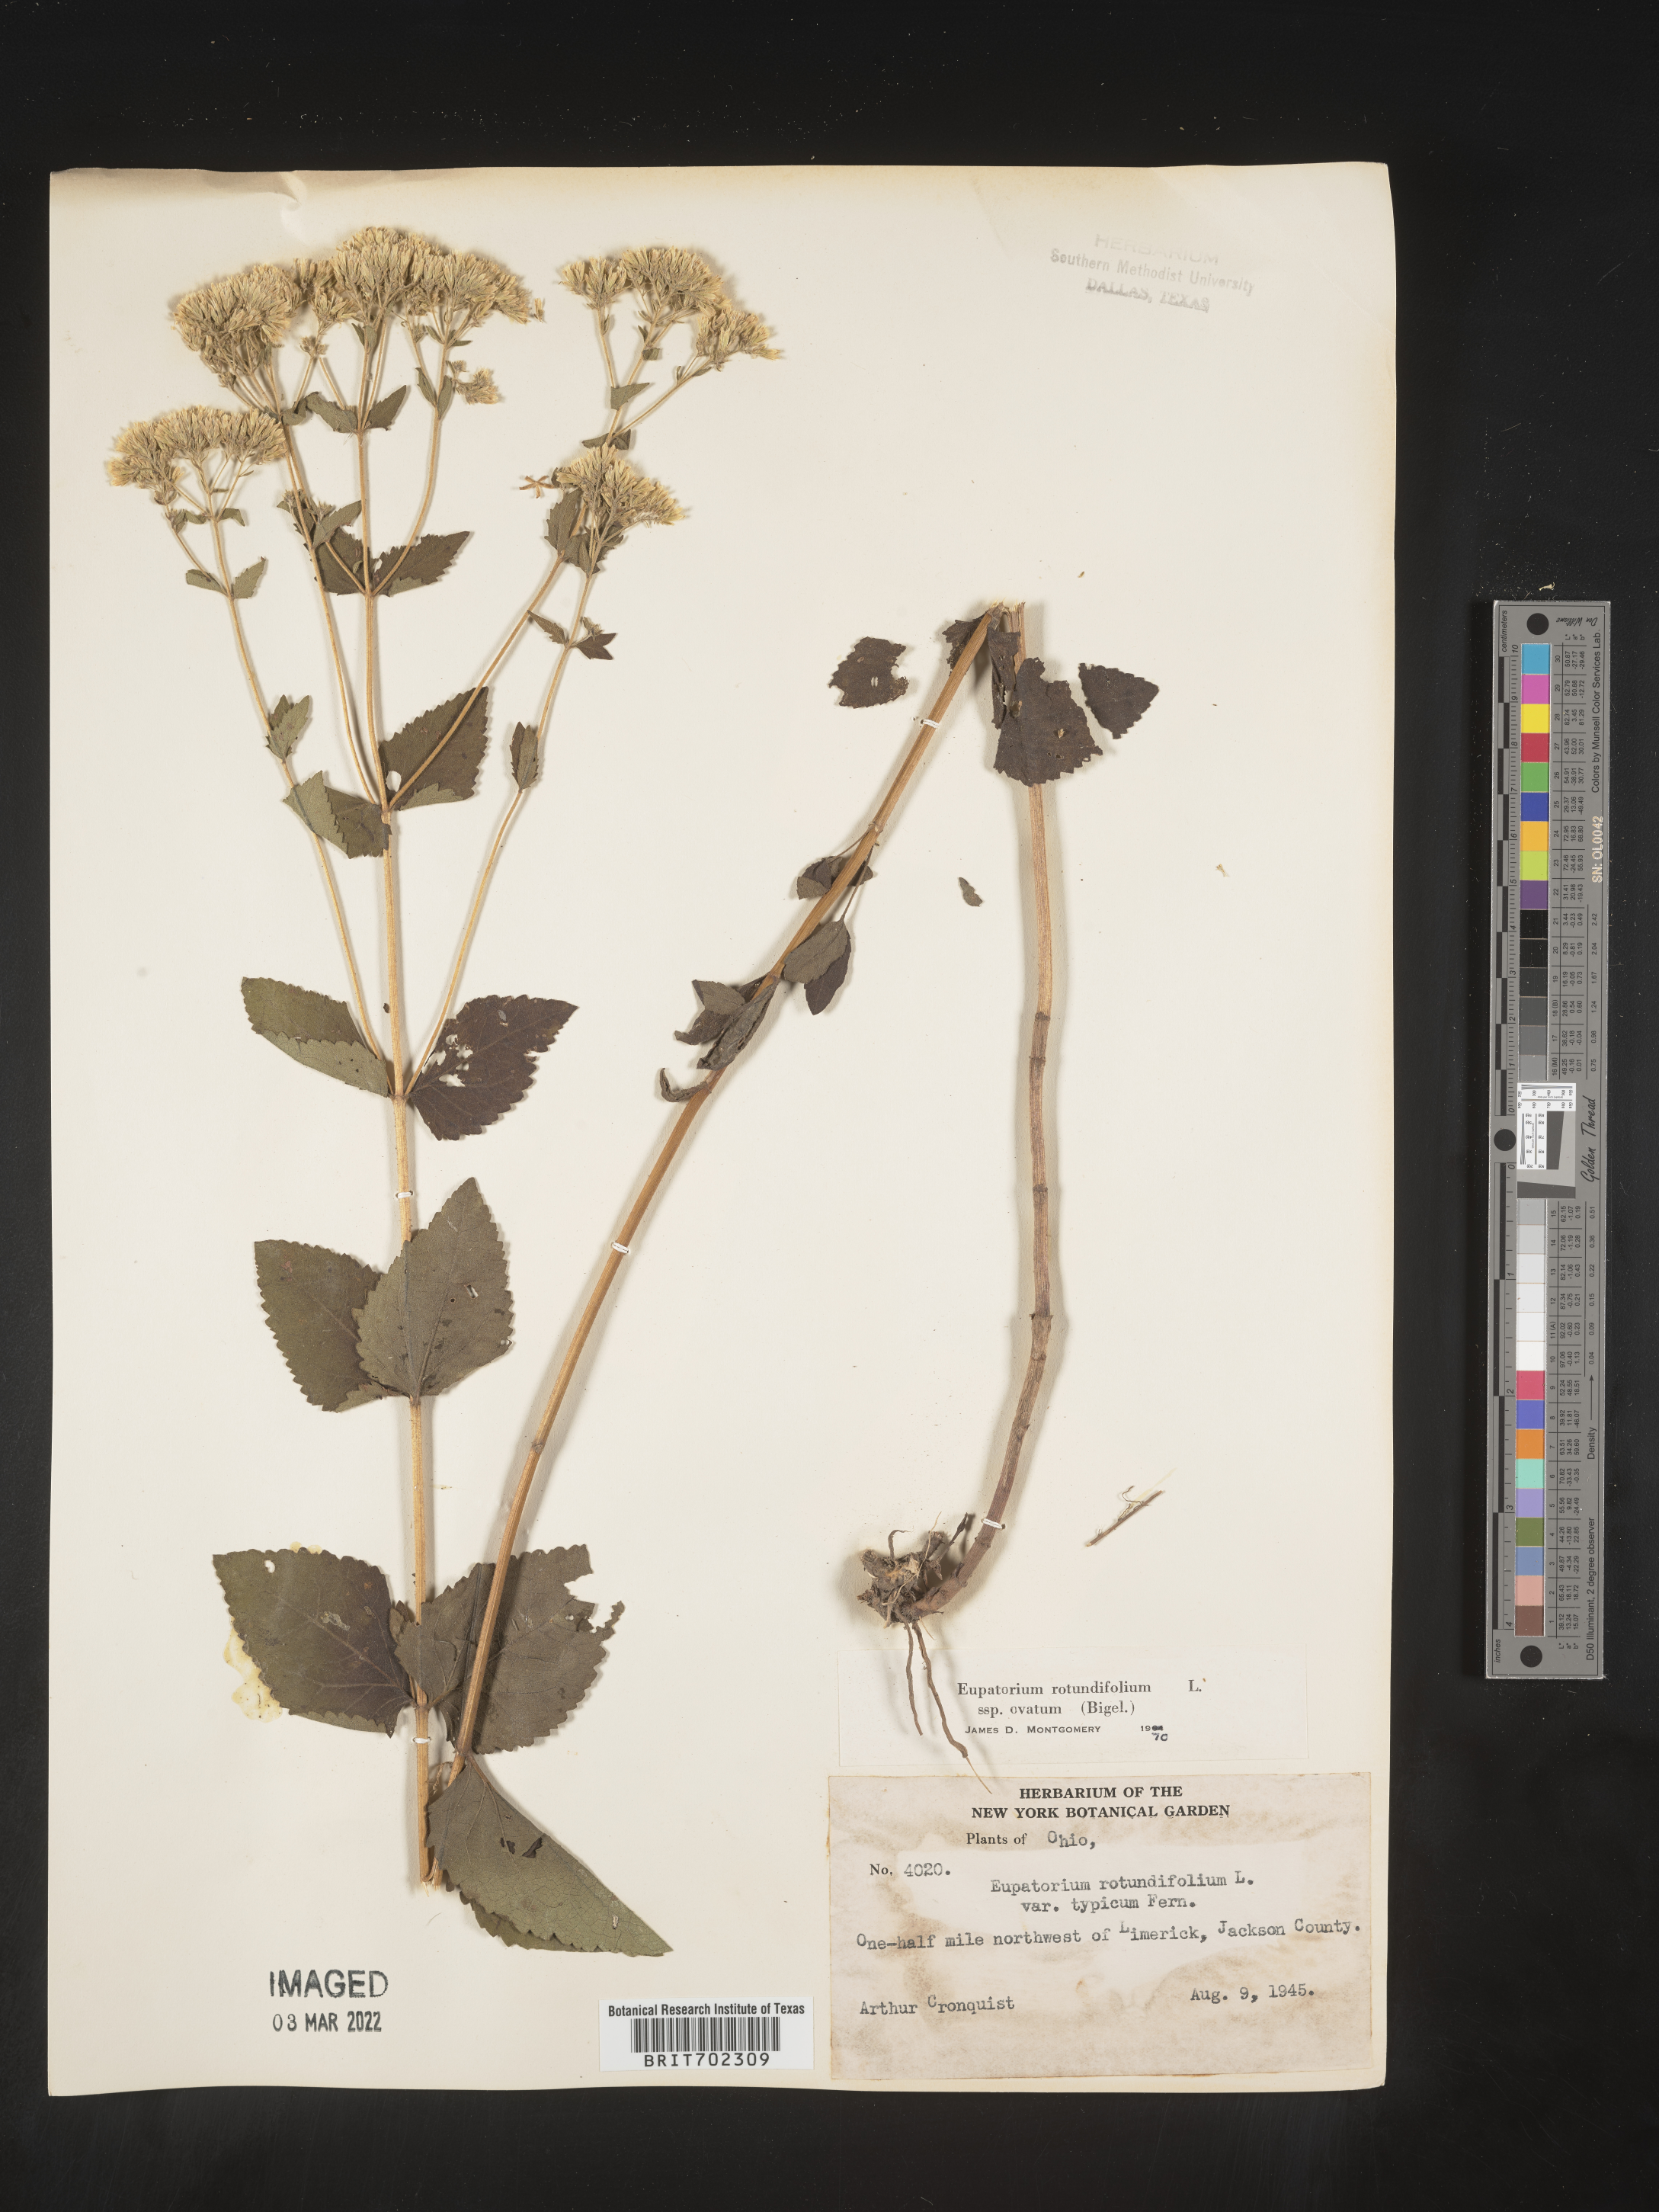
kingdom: Plantae
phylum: Tracheophyta
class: Magnoliopsida
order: Asterales
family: Asteraceae
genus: Eupatorium
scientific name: Eupatorium rotundifolium
